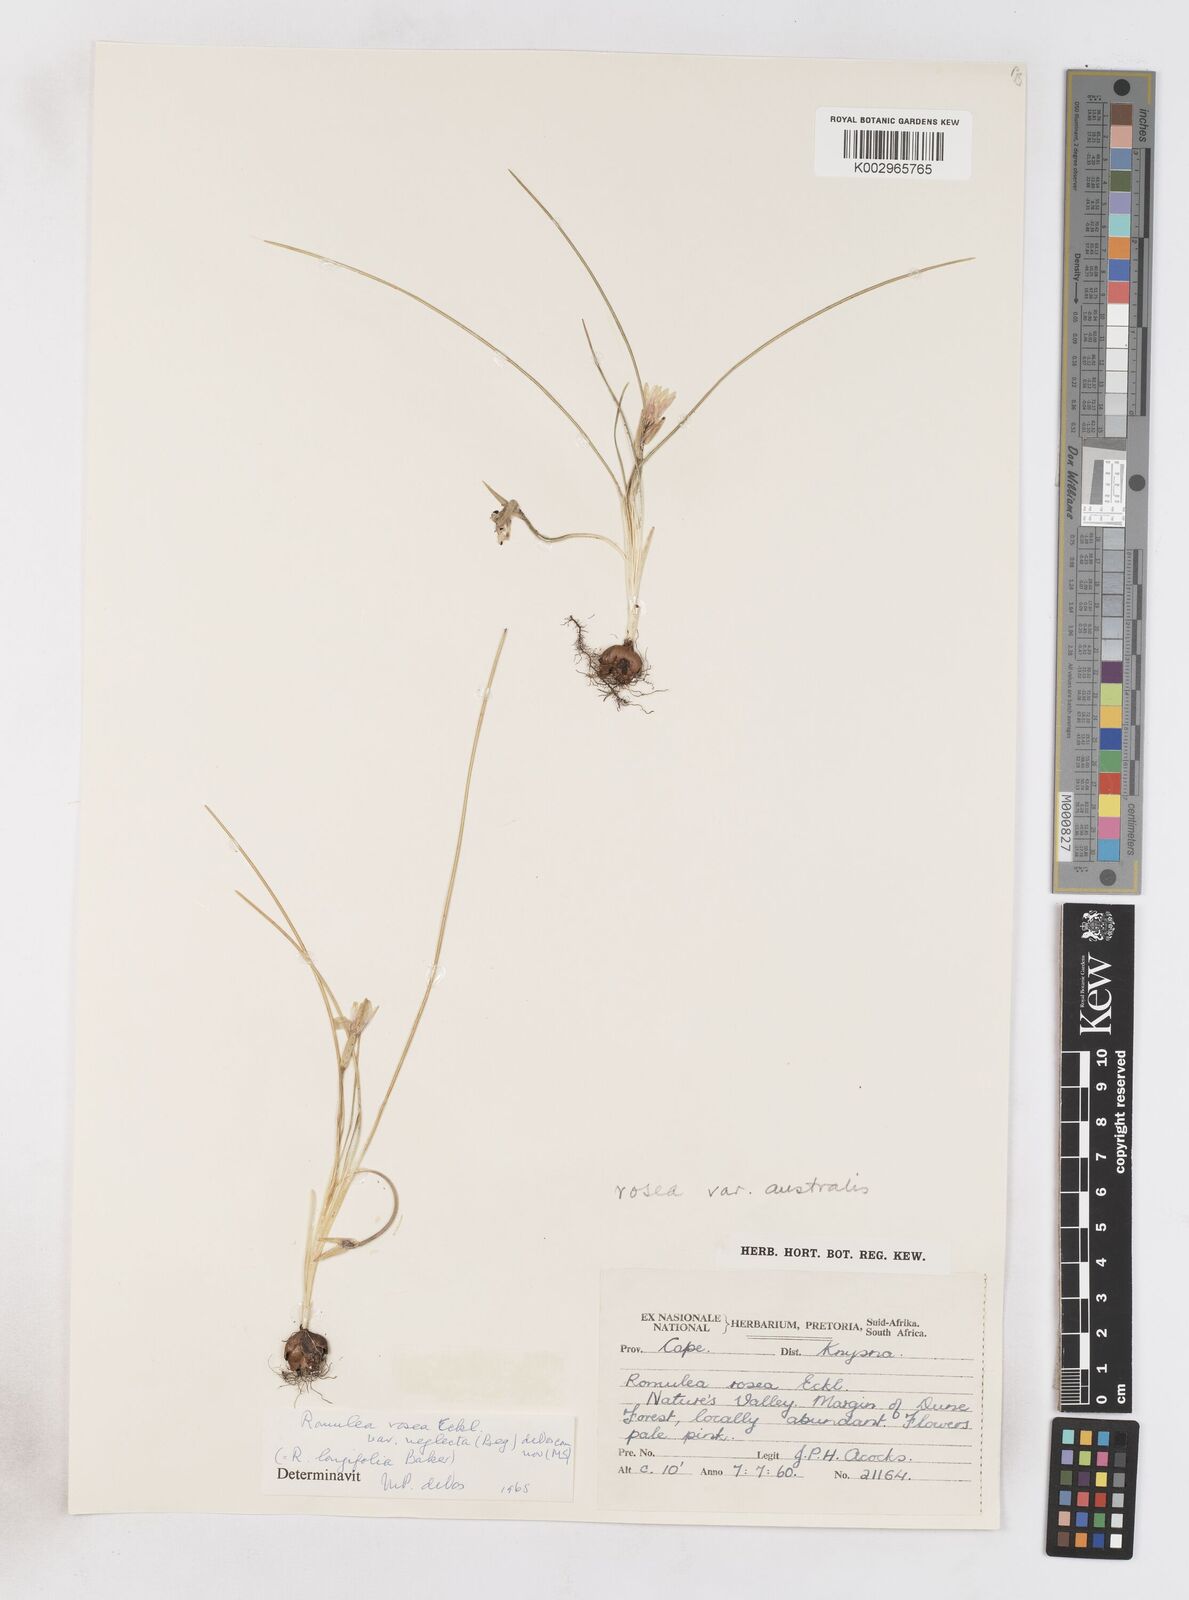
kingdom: Plantae
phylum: Tracheophyta
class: Liliopsida
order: Asparagales
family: Iridaceae
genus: Romulea
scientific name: Romulea rosea
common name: Oniongrass
